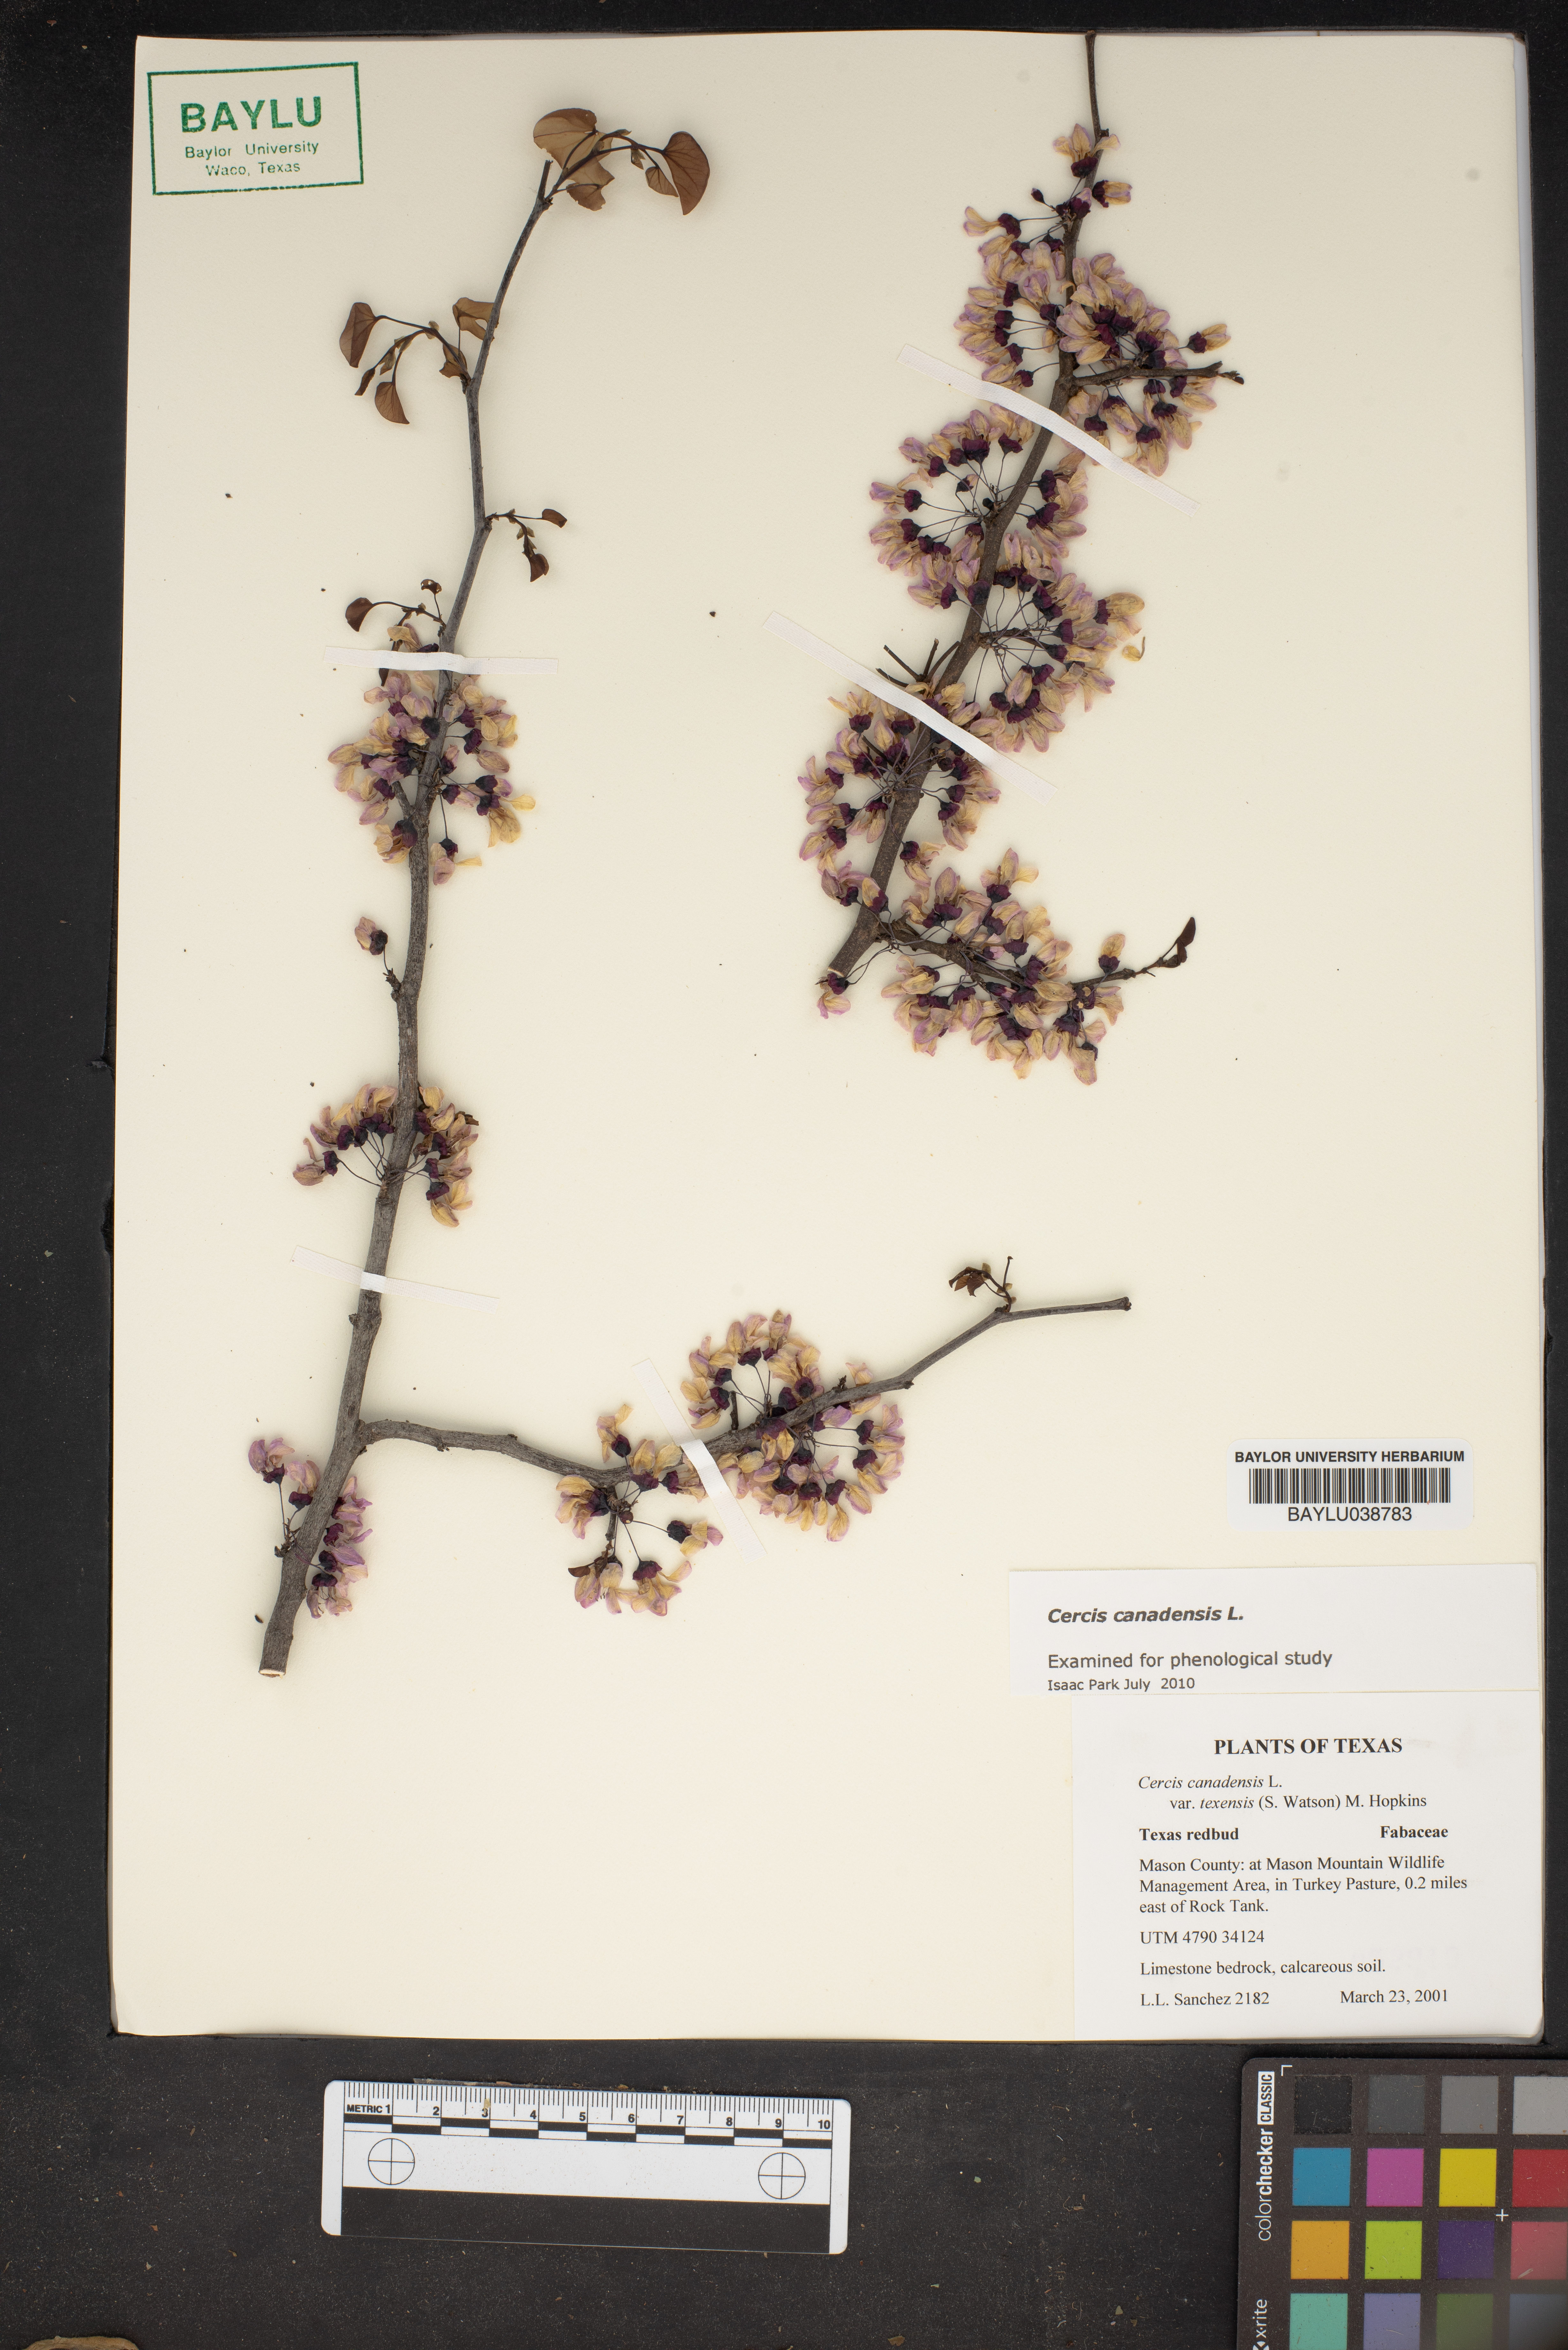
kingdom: Plantae
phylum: Tracheophyta
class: Magnoliopsida
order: Fabales
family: Fabaceae
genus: Cercis
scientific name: Cercis canadensis
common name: Eastern redbud
